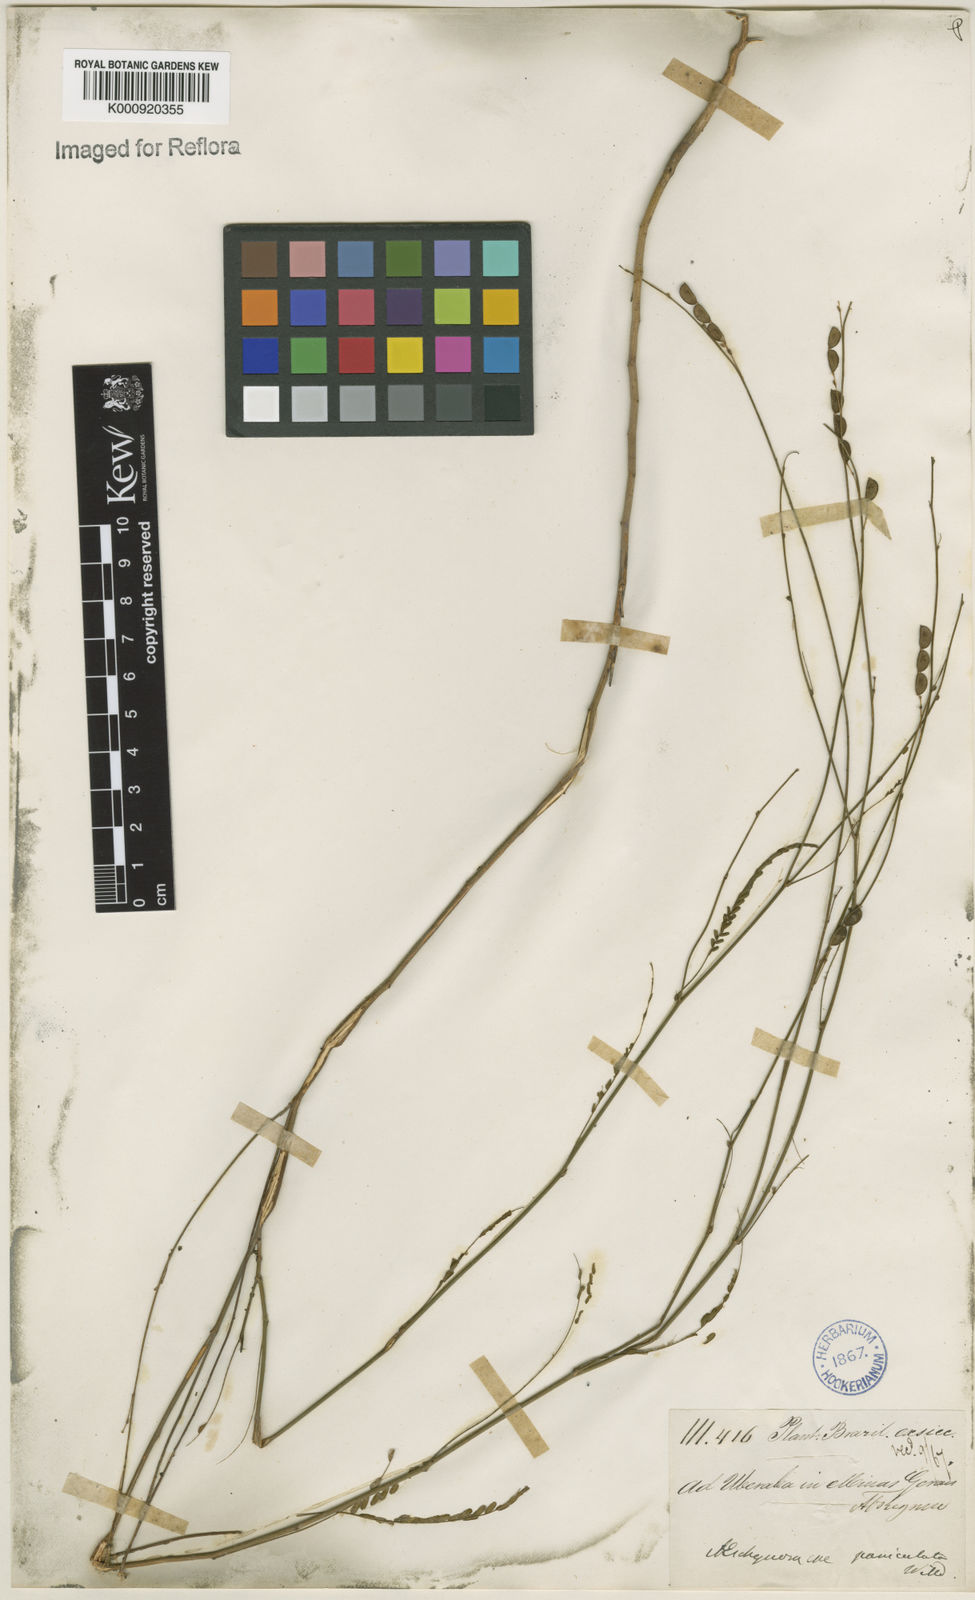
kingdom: Plantae
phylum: Tracheophyta
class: Magnoliopsida
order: Fabales
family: Fabaceae
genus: Ctenodon
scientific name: Ctenodon paniculatus
